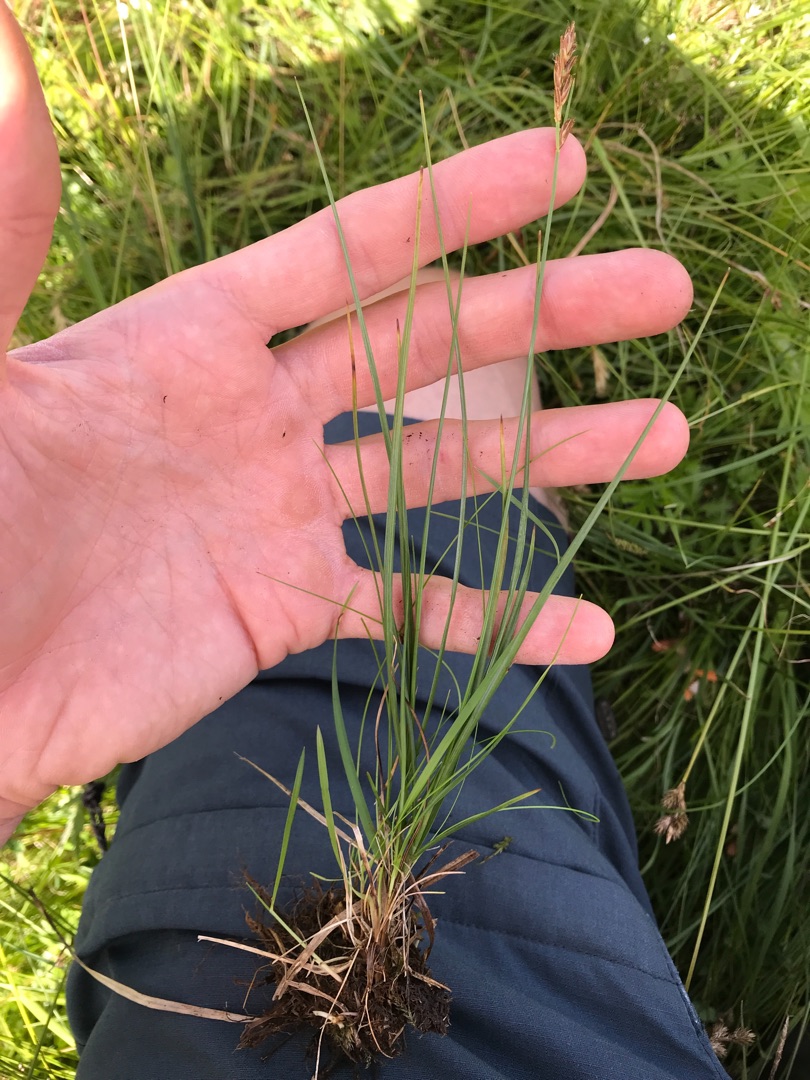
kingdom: Plantae
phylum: Tracheophyta
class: Liliopsida
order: Poales
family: Cyperaceae
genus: Blysmus
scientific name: Blysmus compressus
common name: Fladtrykt kogleaks
